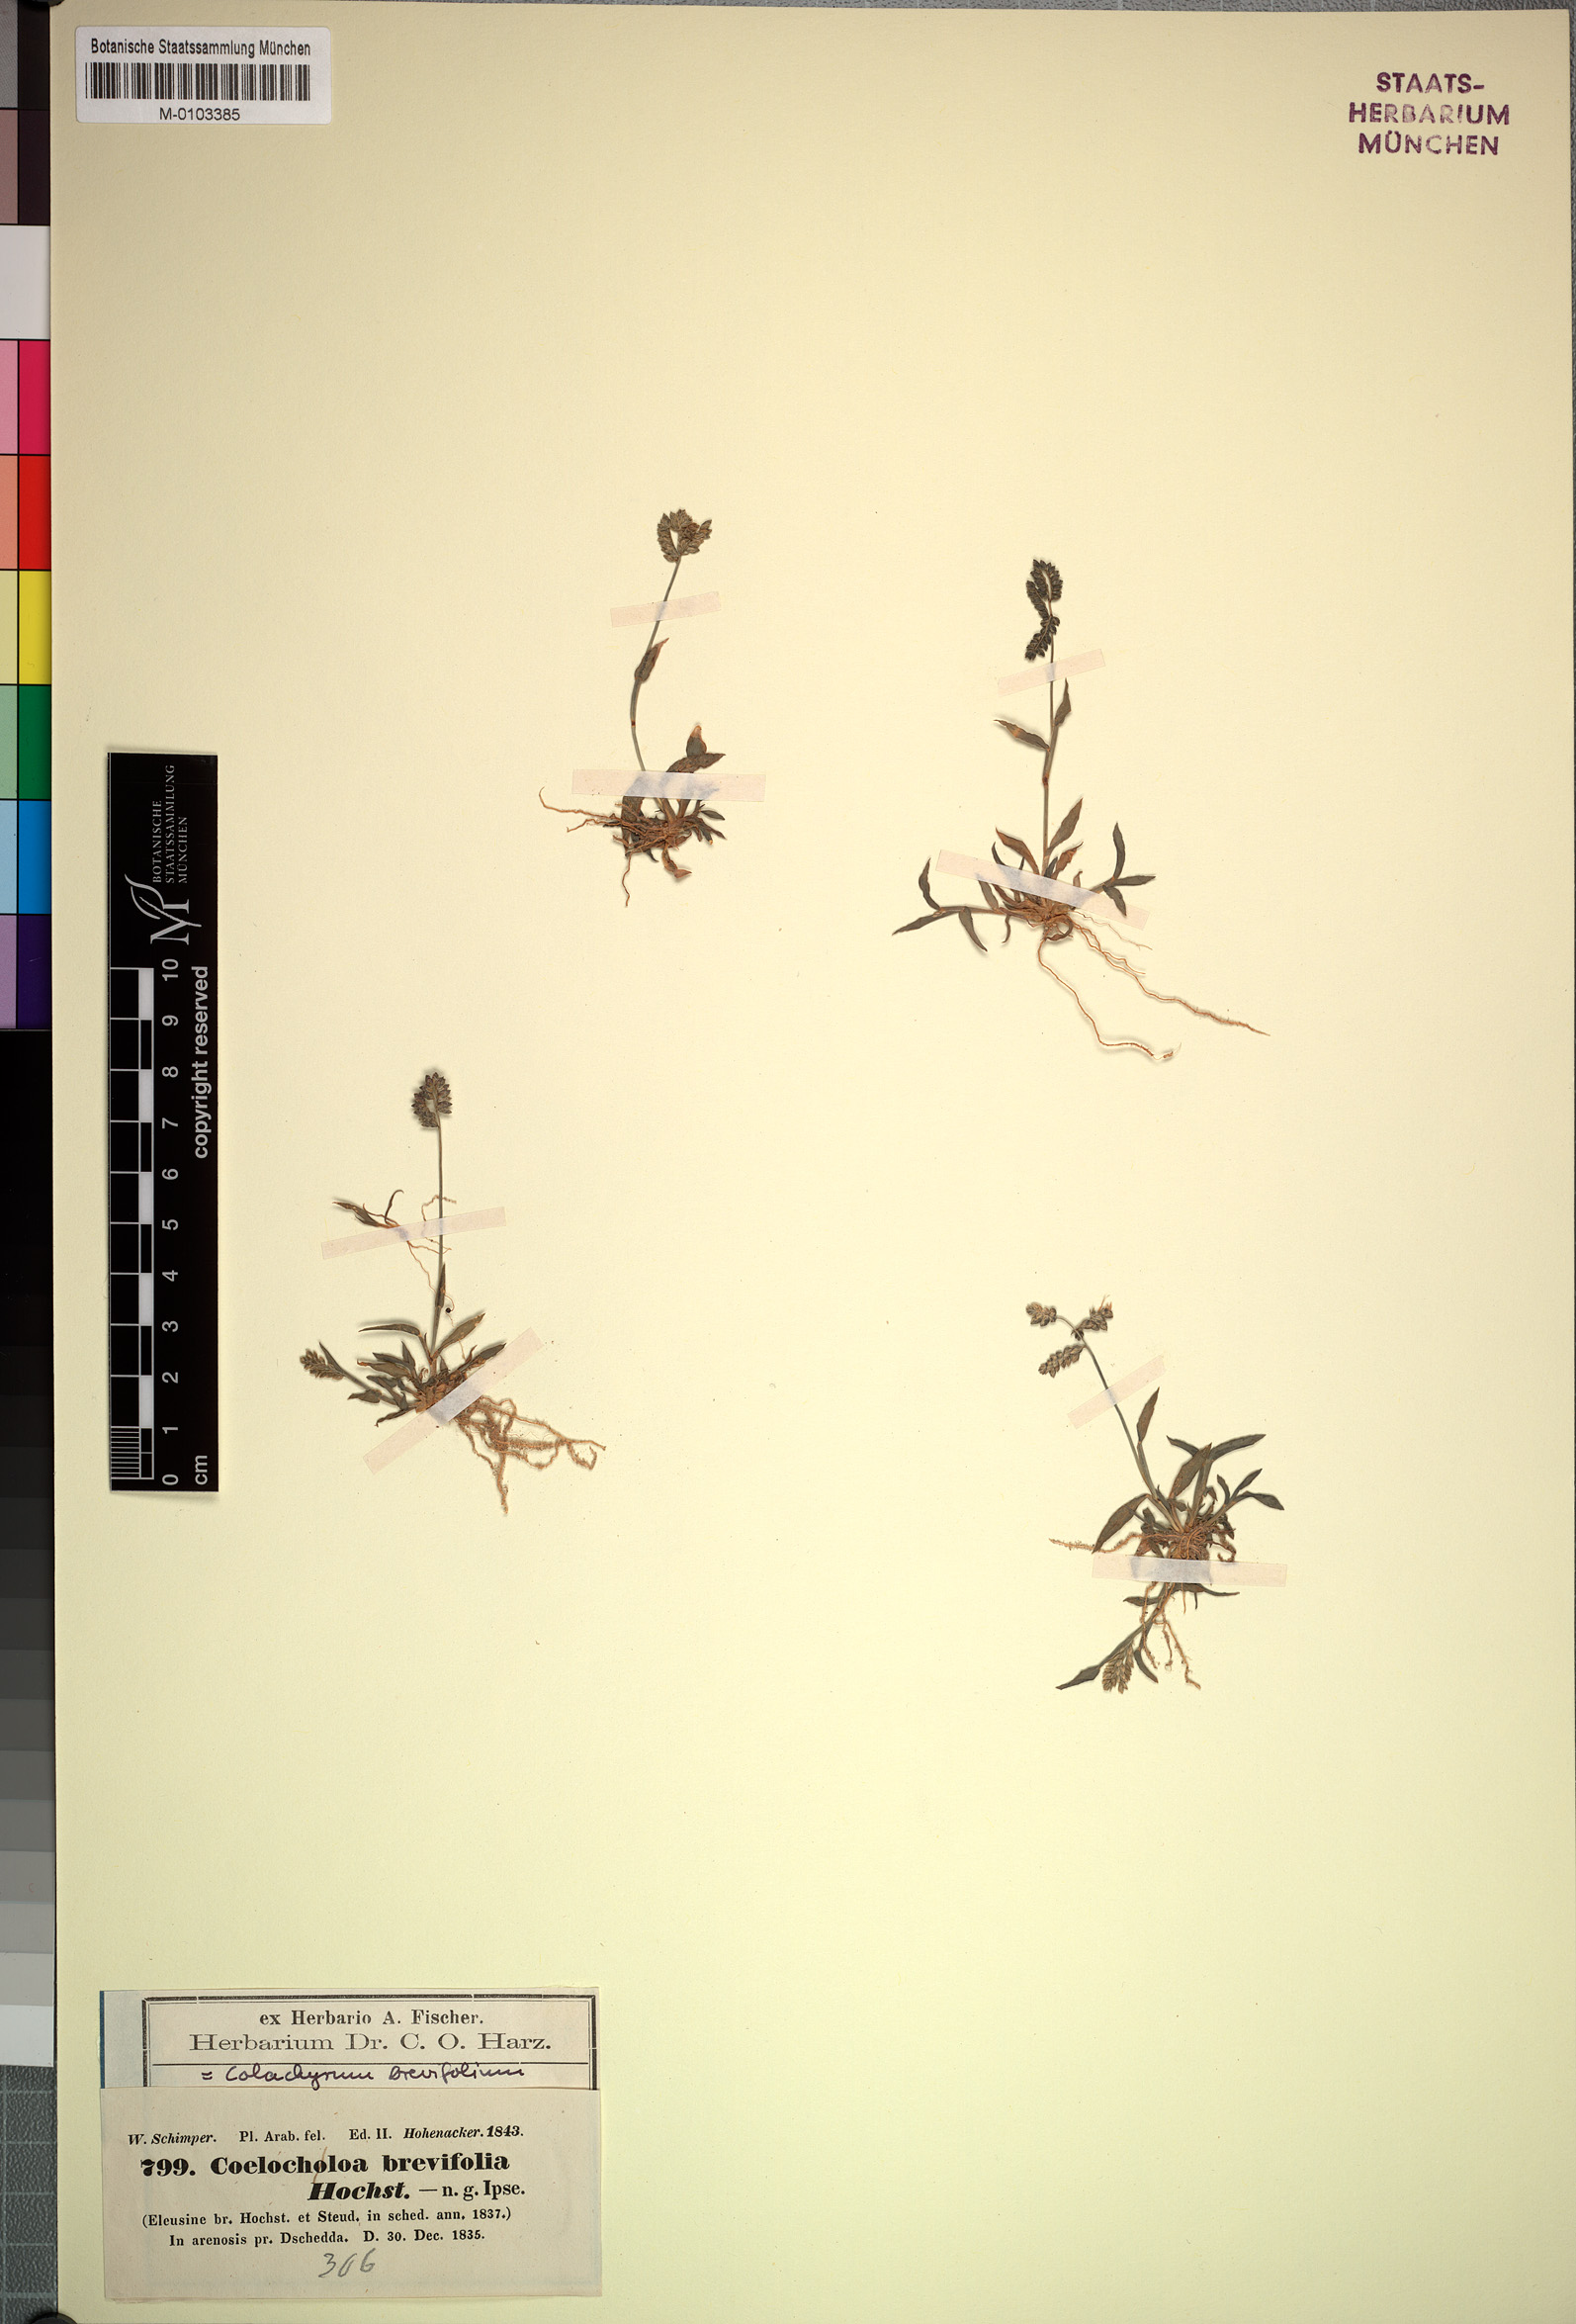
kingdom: Plantae
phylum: Tracheophyta
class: Liliopsida
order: Poales
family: Poaceae
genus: Coelachyrum
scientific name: Coelachyrum brevifolium
